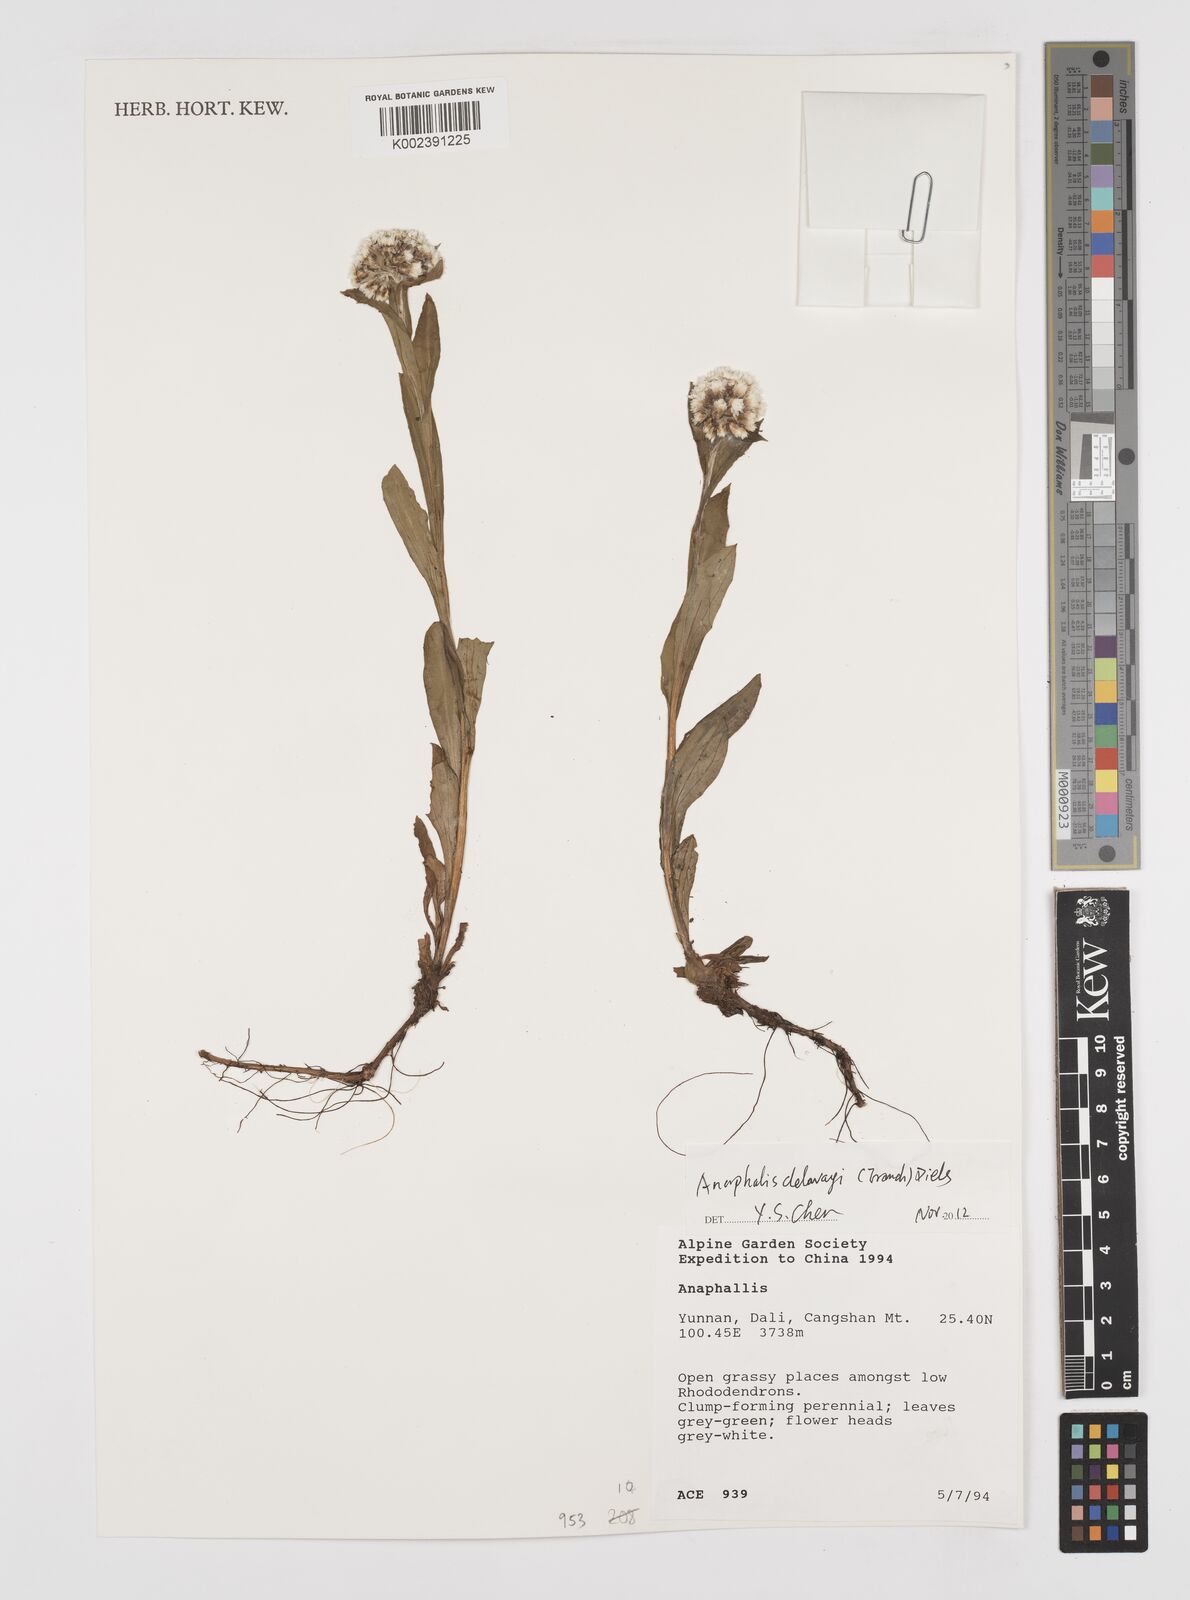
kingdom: Plantae
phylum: Tracheophyta
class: Magnoliopsida
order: Asterales
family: Asteraceae
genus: Anaphalis
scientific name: Anaphalis delavayi
